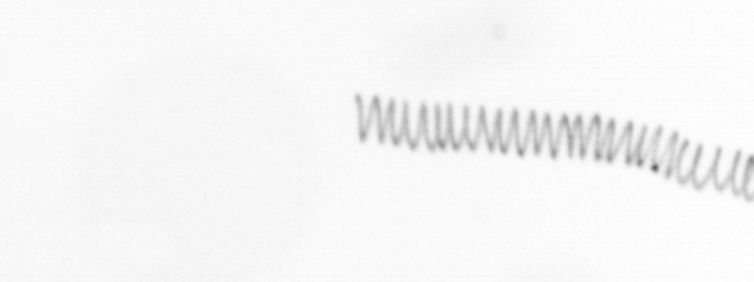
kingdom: Chromista
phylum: Ochrophyta
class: Bacillariophyceae
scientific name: Bacillariophyceae
